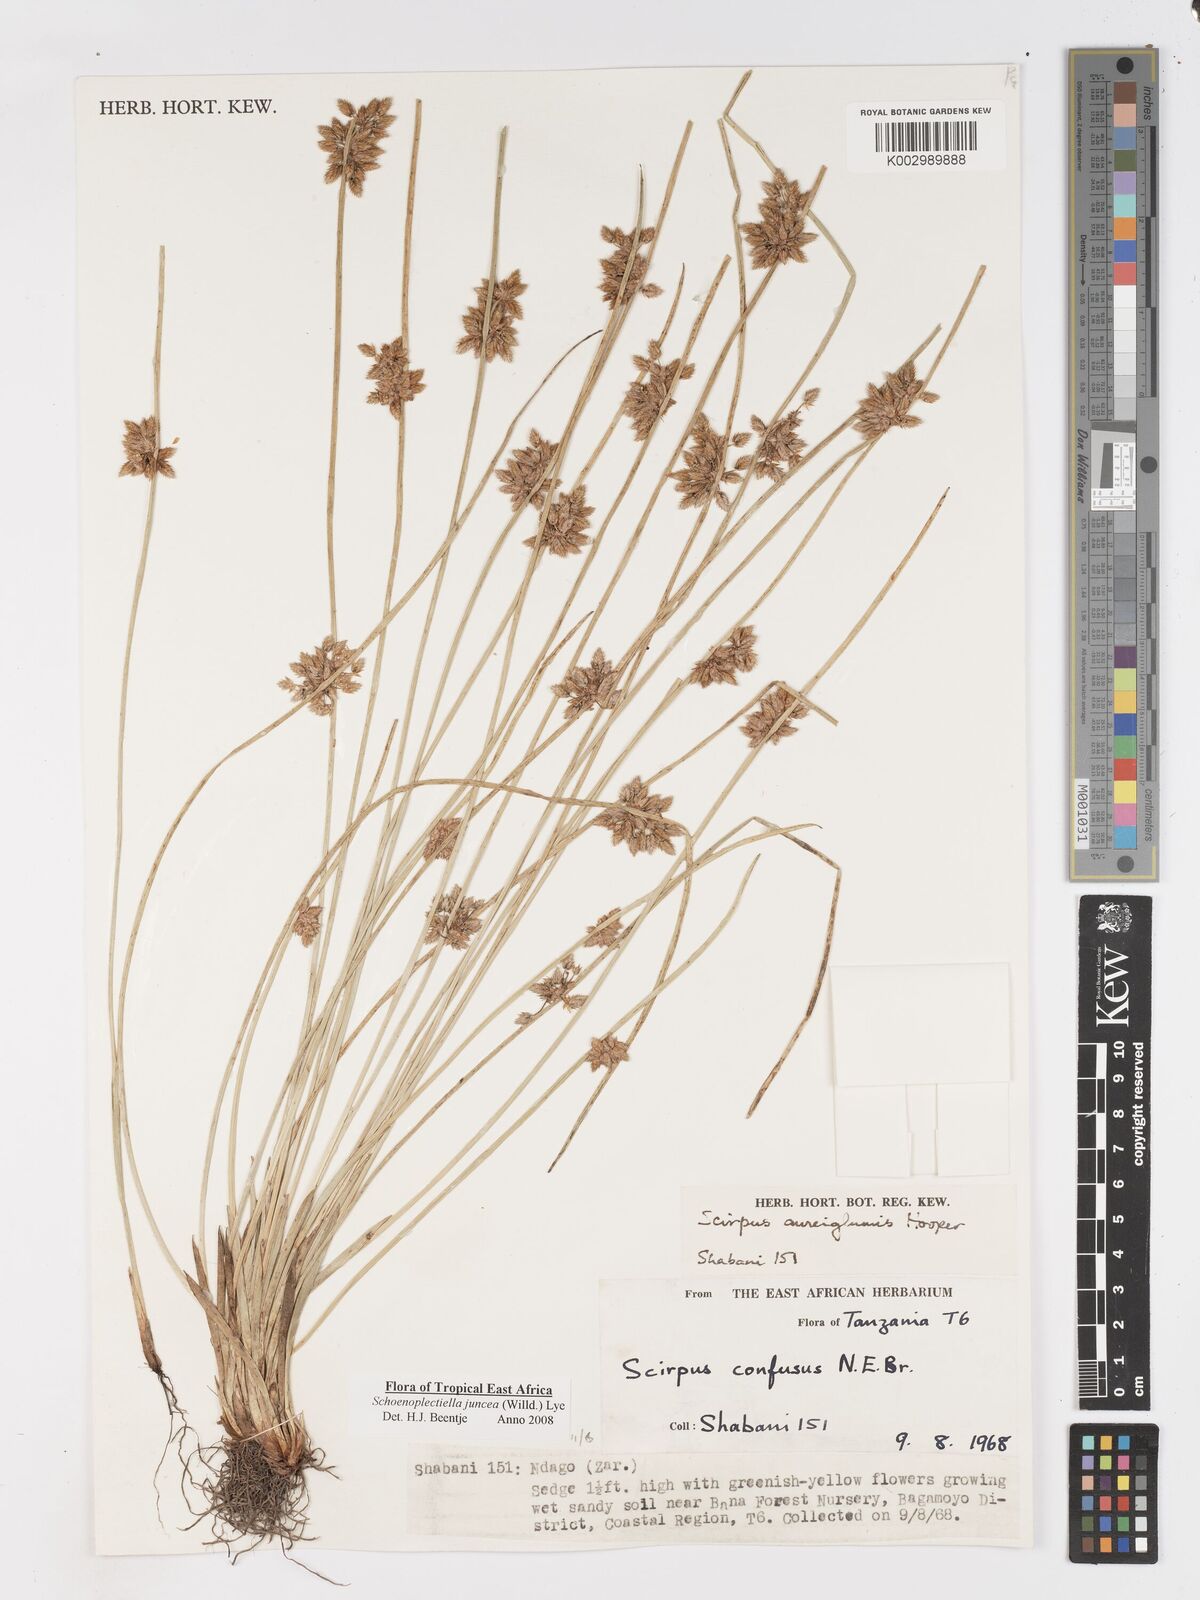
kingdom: Plantae
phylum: Tracheophyta
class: Liliopsida
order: Poales
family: Cyperaceae
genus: Schoenoplectiella
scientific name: Schoenoplectiella juncea
